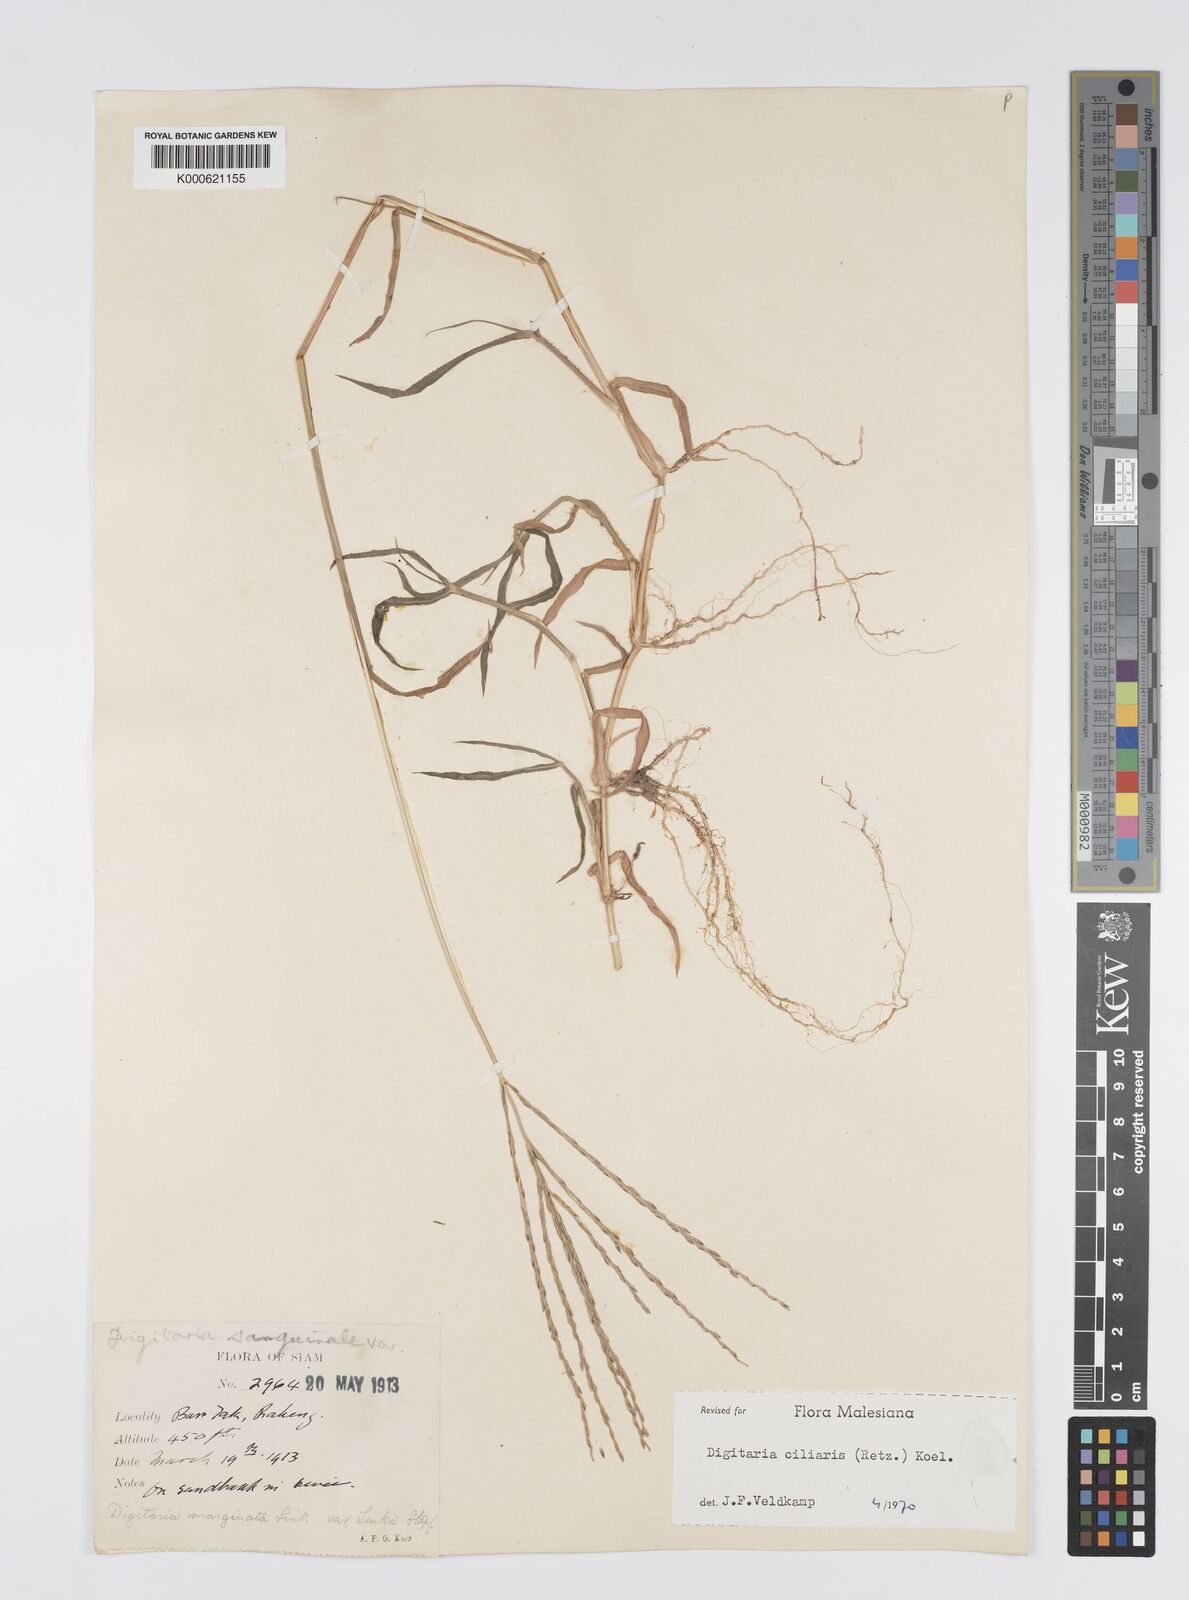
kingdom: Plantae
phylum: Tracheophyta
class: Liliopsida
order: Poales
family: Poaceae
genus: Digitaria
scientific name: Digitaria ciliaris
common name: Tropical finger-grass
